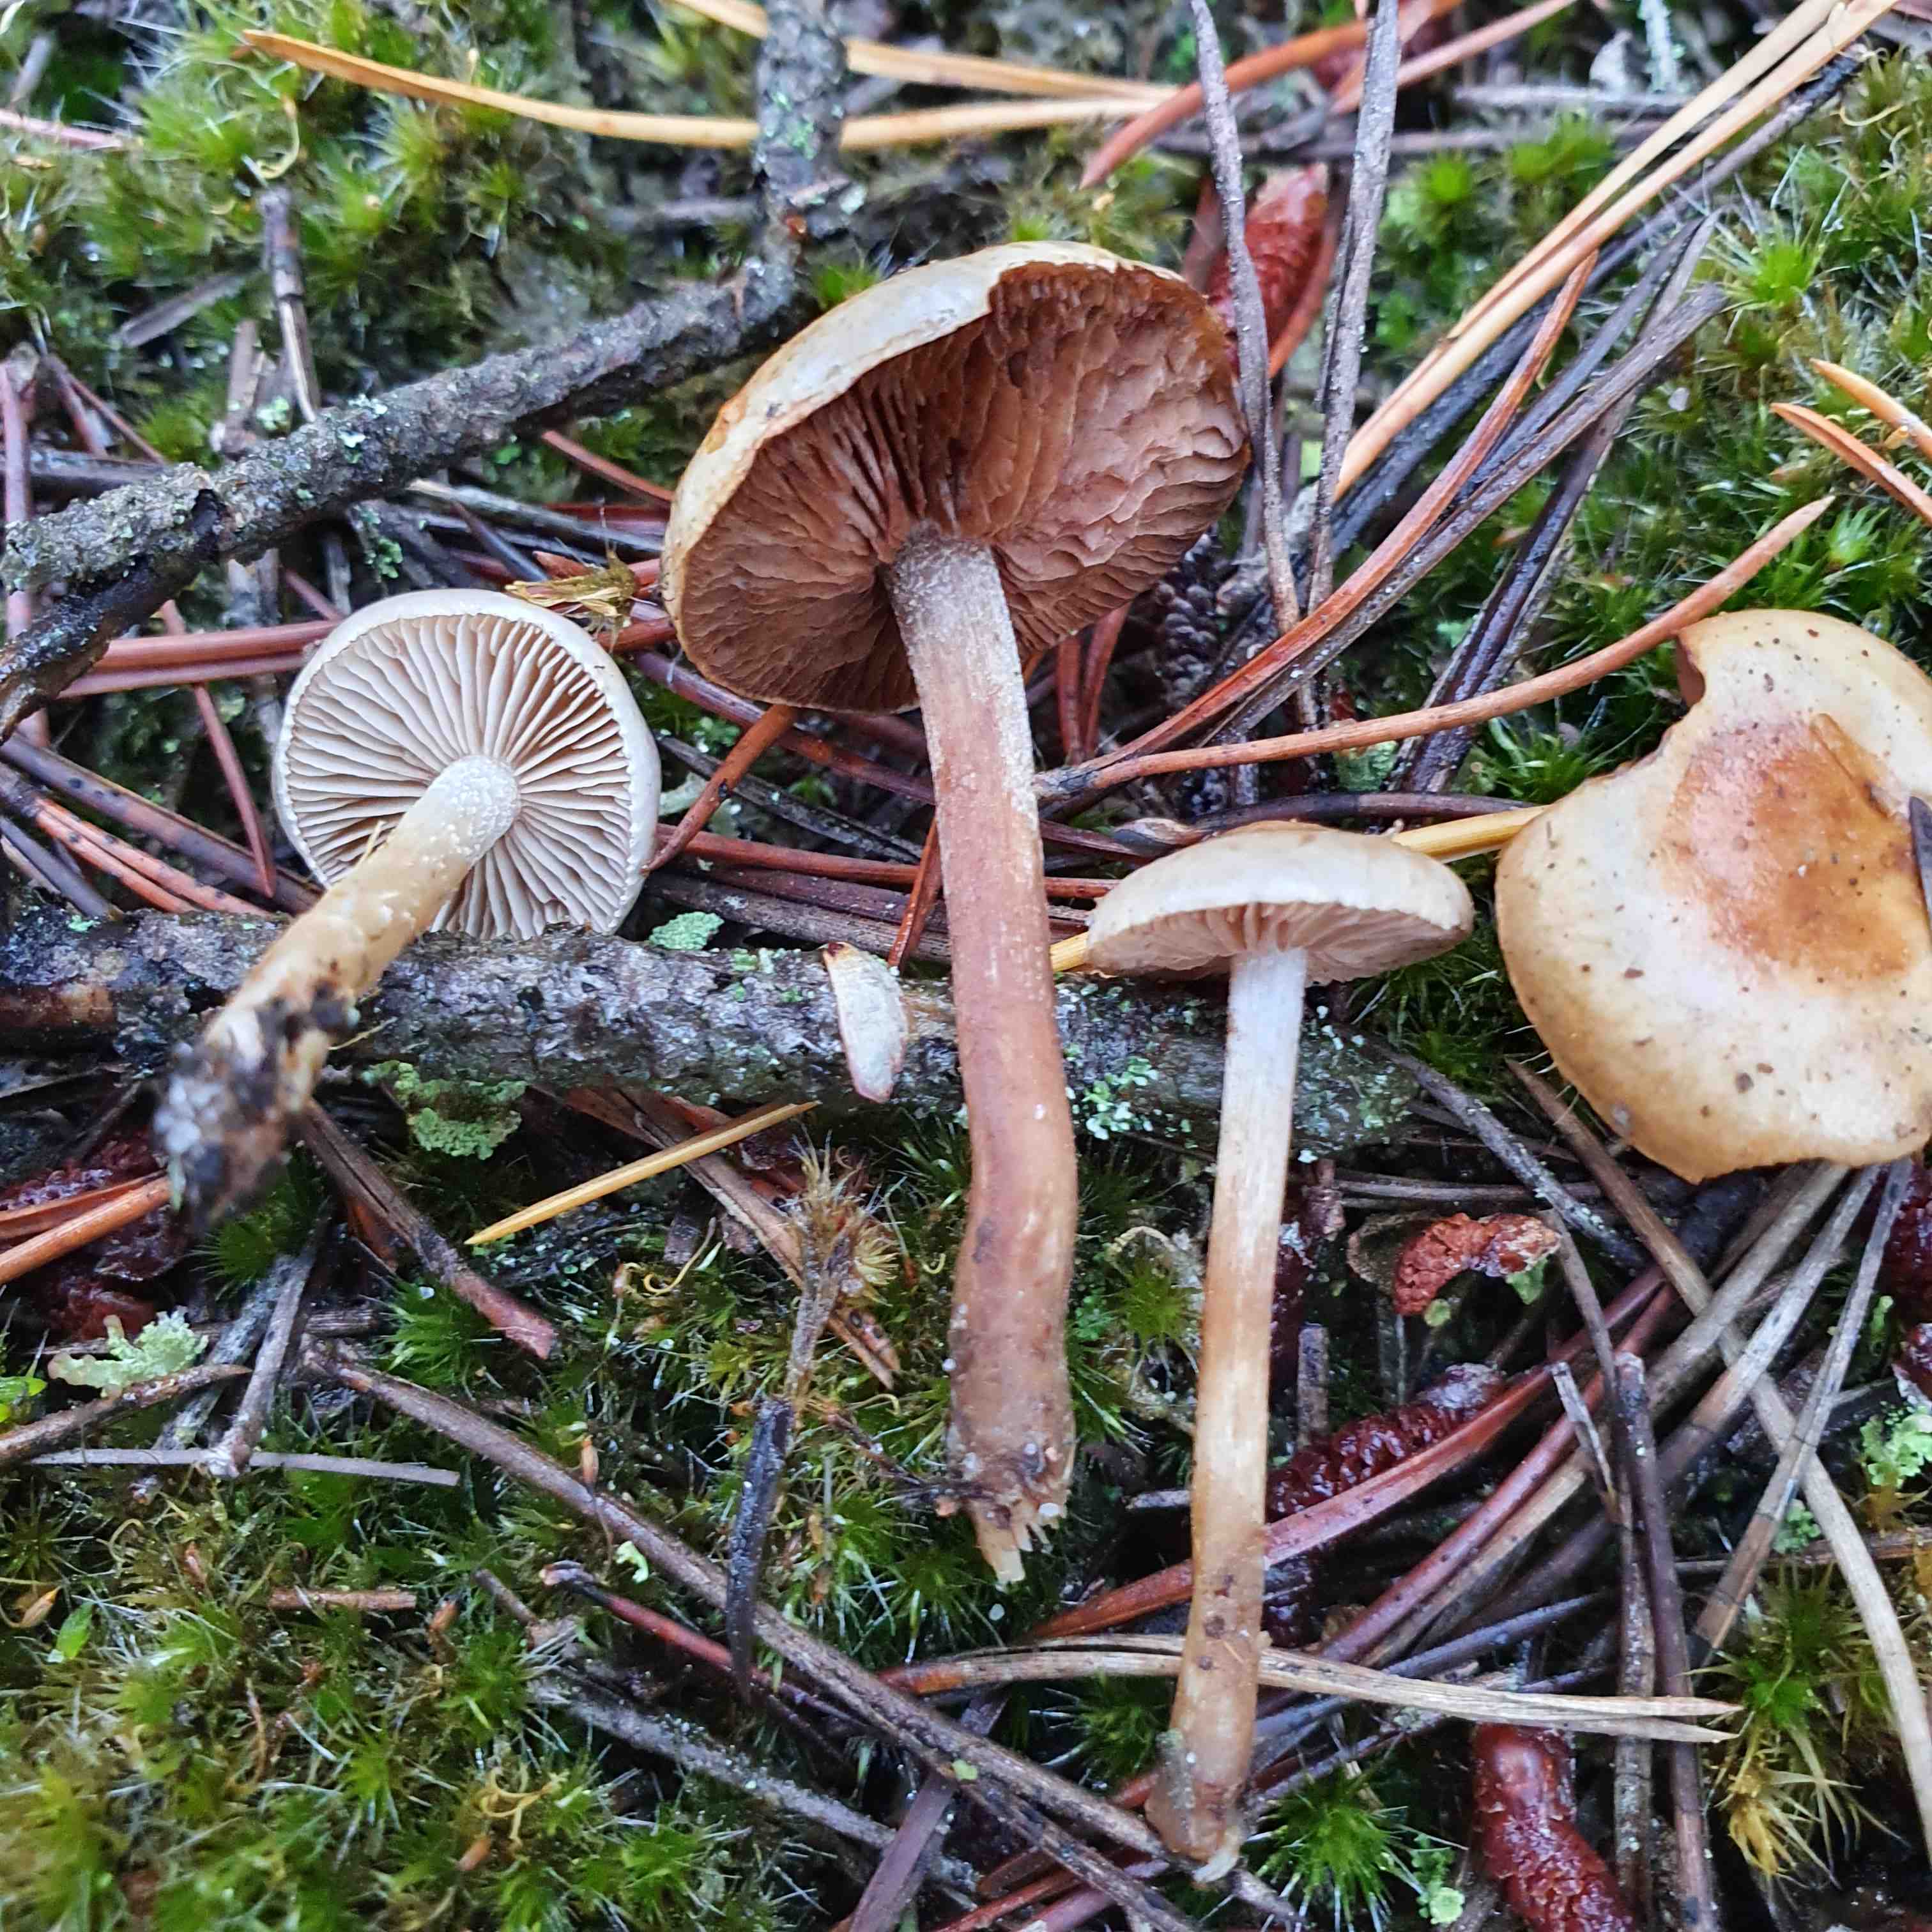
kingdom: Fungi
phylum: Basidiomycota
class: Agaricomycetes
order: Agaricales
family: Hymenogastraceae
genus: Hebeloma
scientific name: Hebeloma cylindrosporum
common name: fyrre-tåreblad
